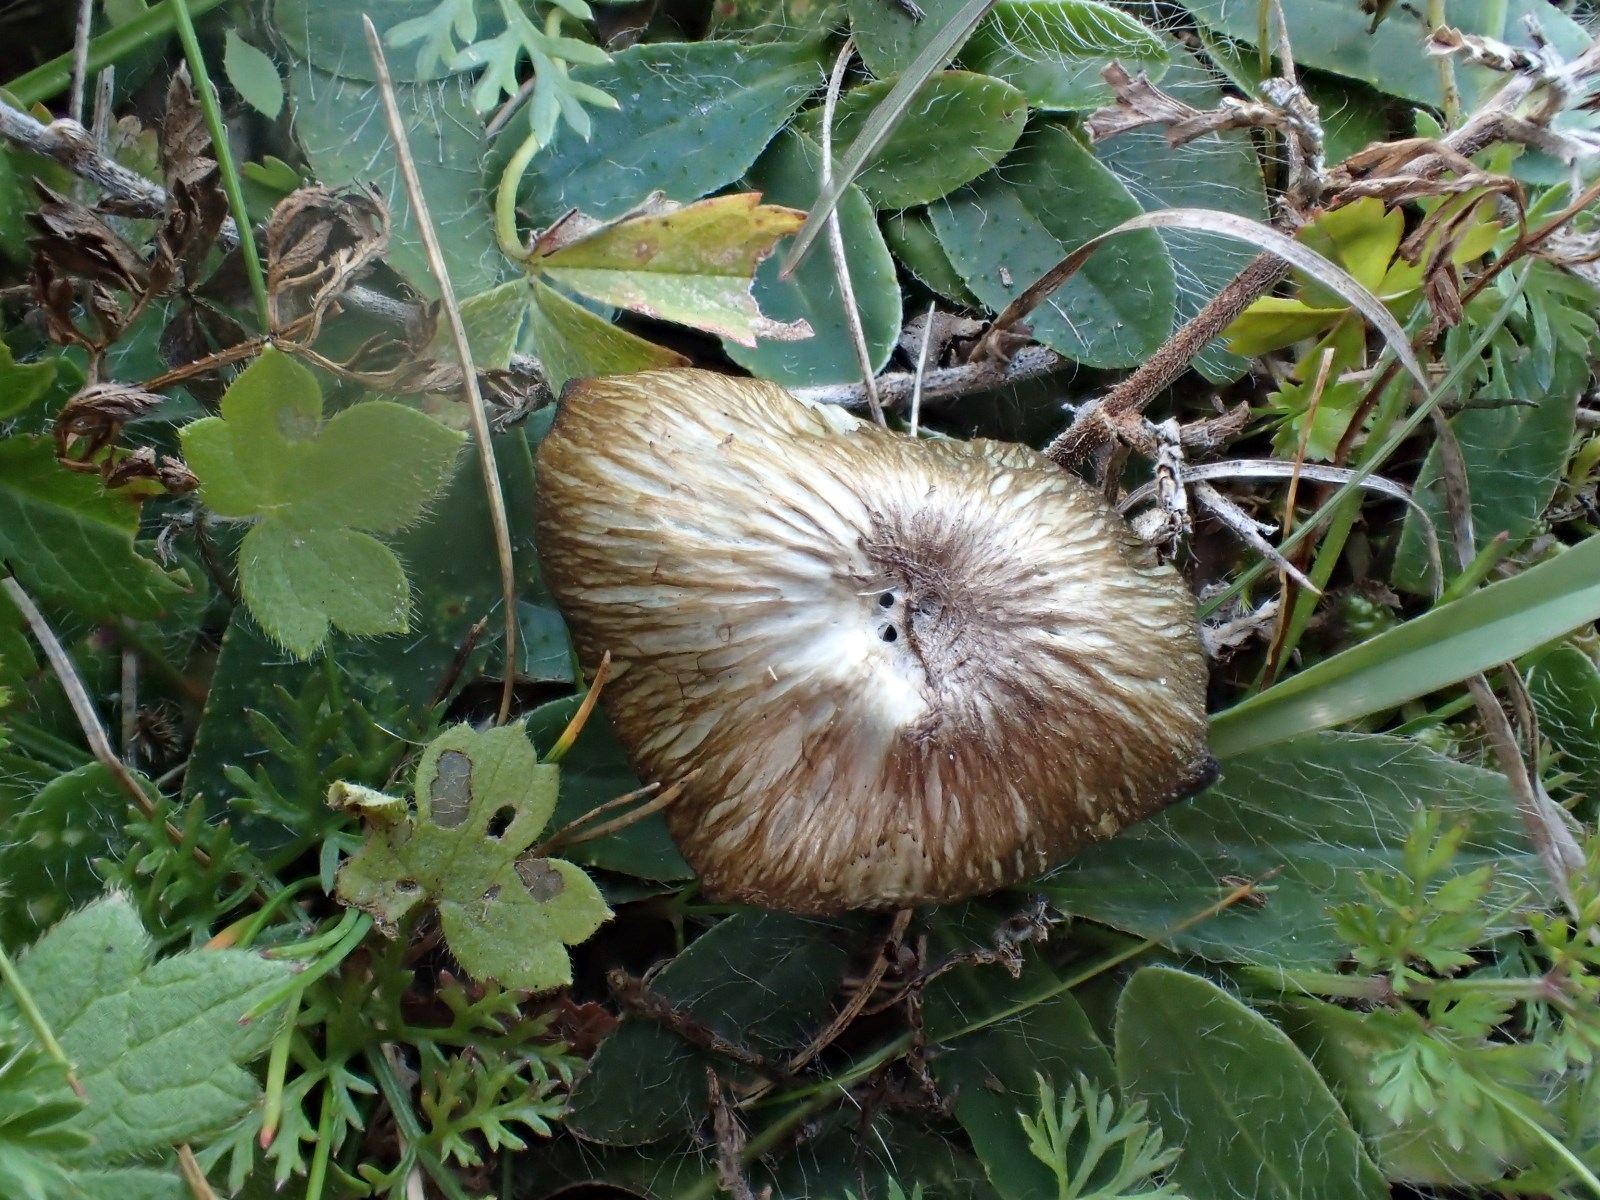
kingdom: Fungi
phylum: Basidiomycota
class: Agaricomycetes
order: Agaricales
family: Entolomataceae
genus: Entoloma
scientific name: Entoloma incanum
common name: grøngul rødblad
